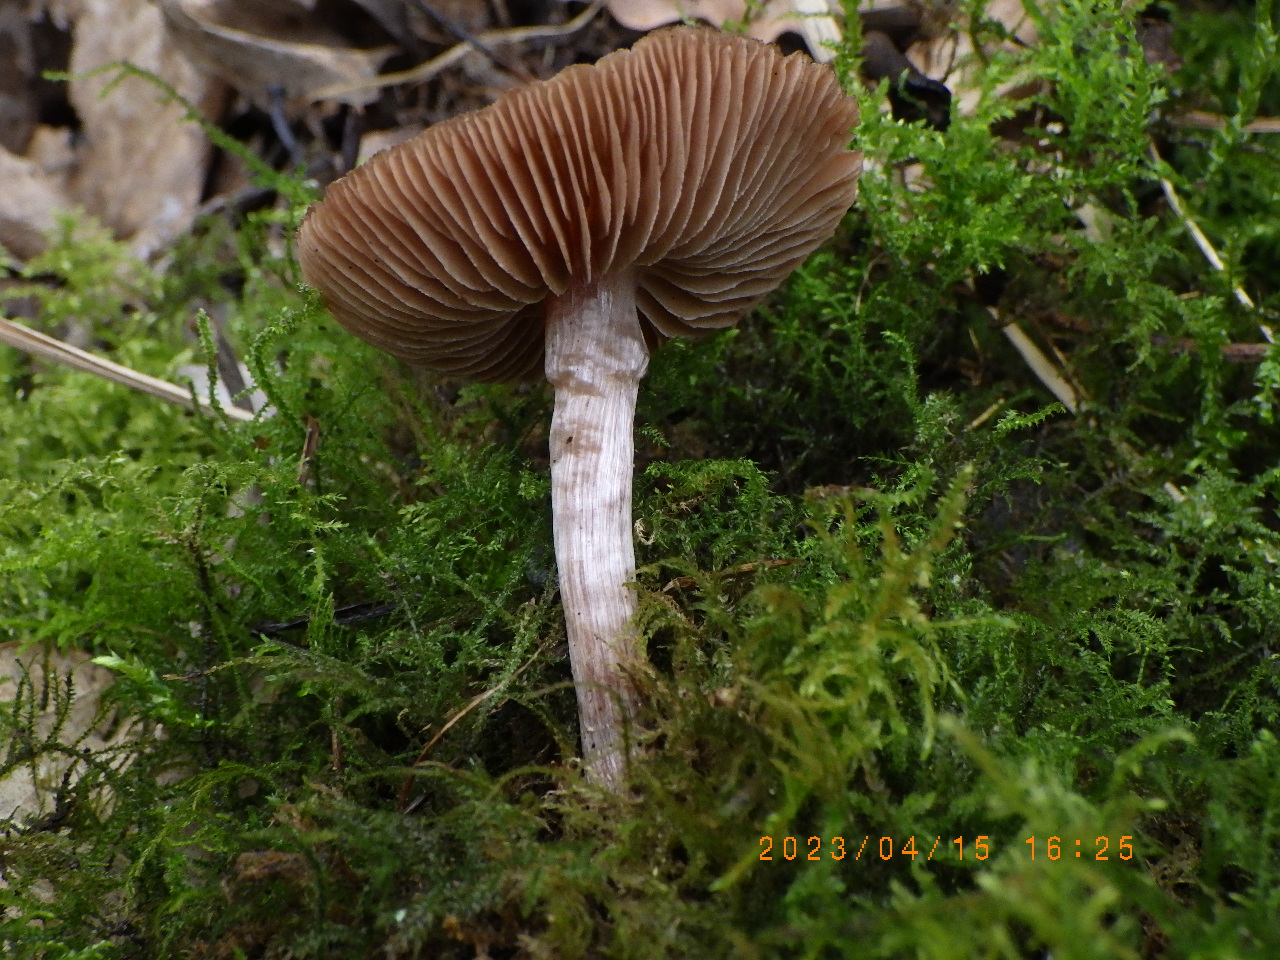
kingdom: Fungi
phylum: Basidiomycota
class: Agaricomycetes
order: Agaricales
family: Cortinariaceae
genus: Cortinarius
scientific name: Cortinarius
